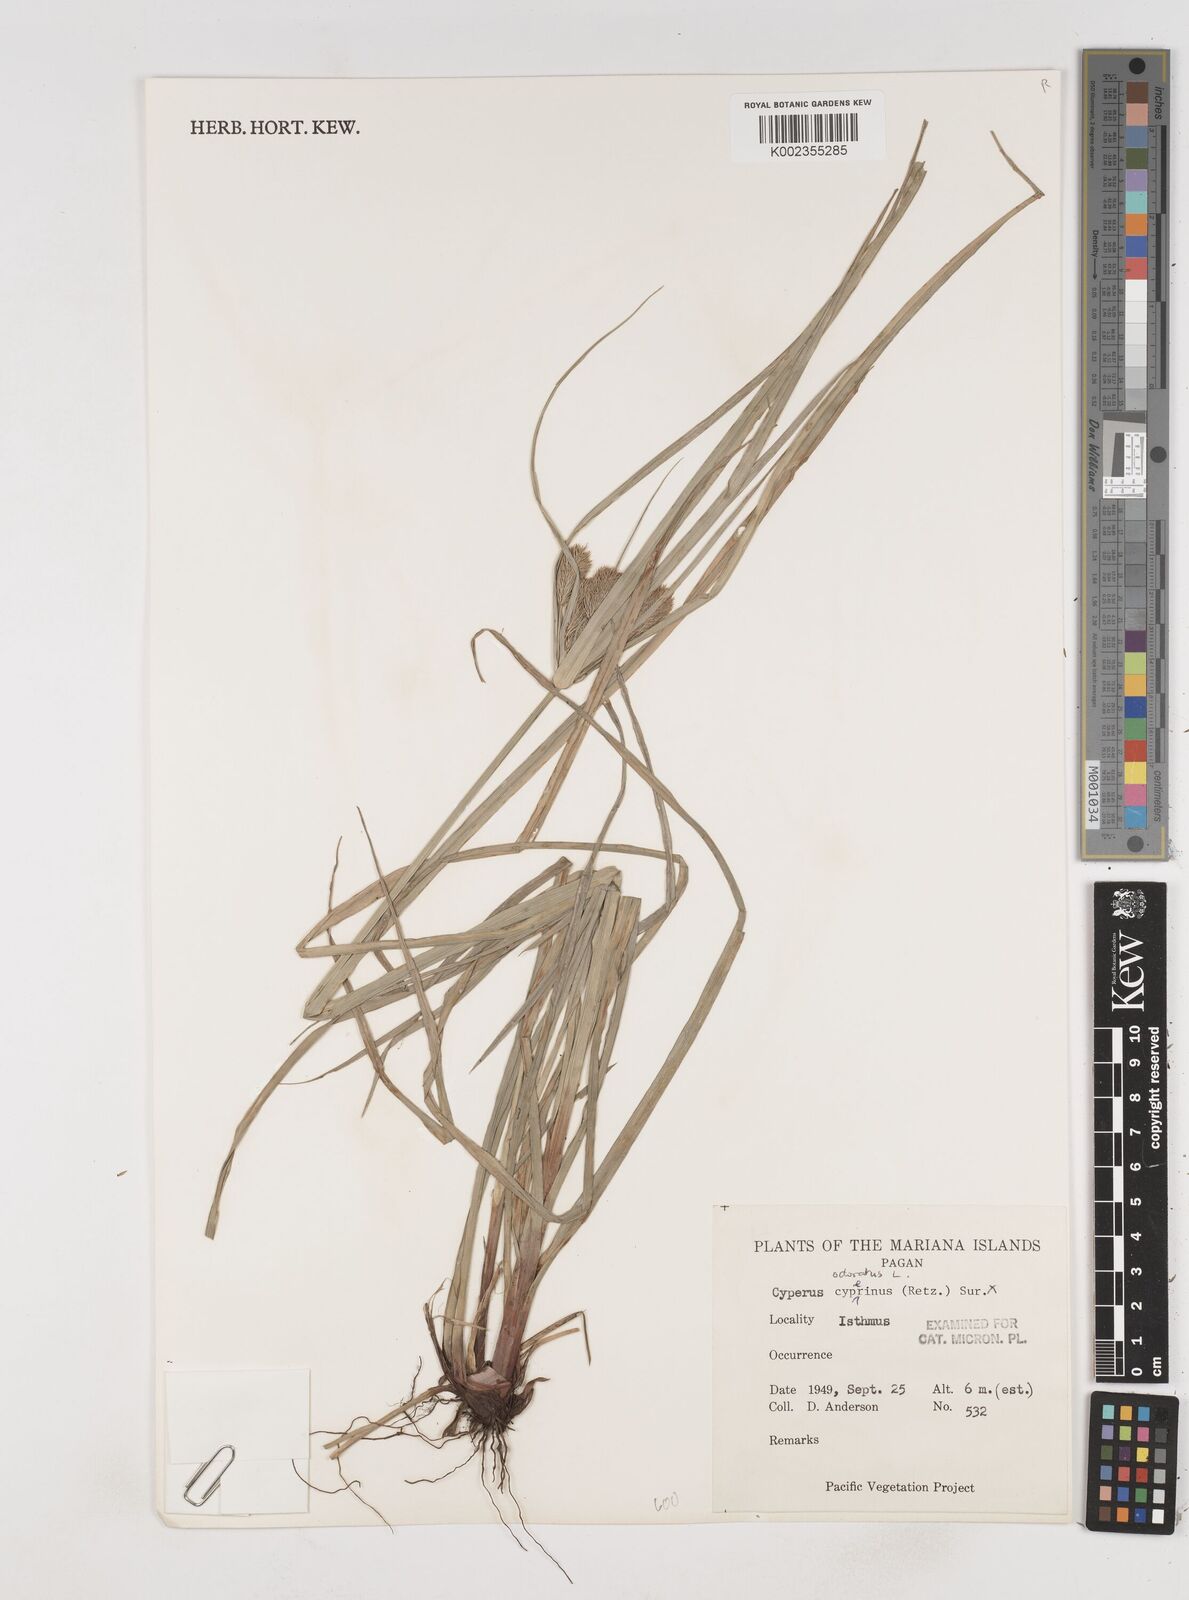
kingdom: Plantae
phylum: Tracheophyta
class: Liliopsida
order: Poales
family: Cyperaceae
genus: Cyperus
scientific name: Cyperus odoratus
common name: Fragrant flatsedge
